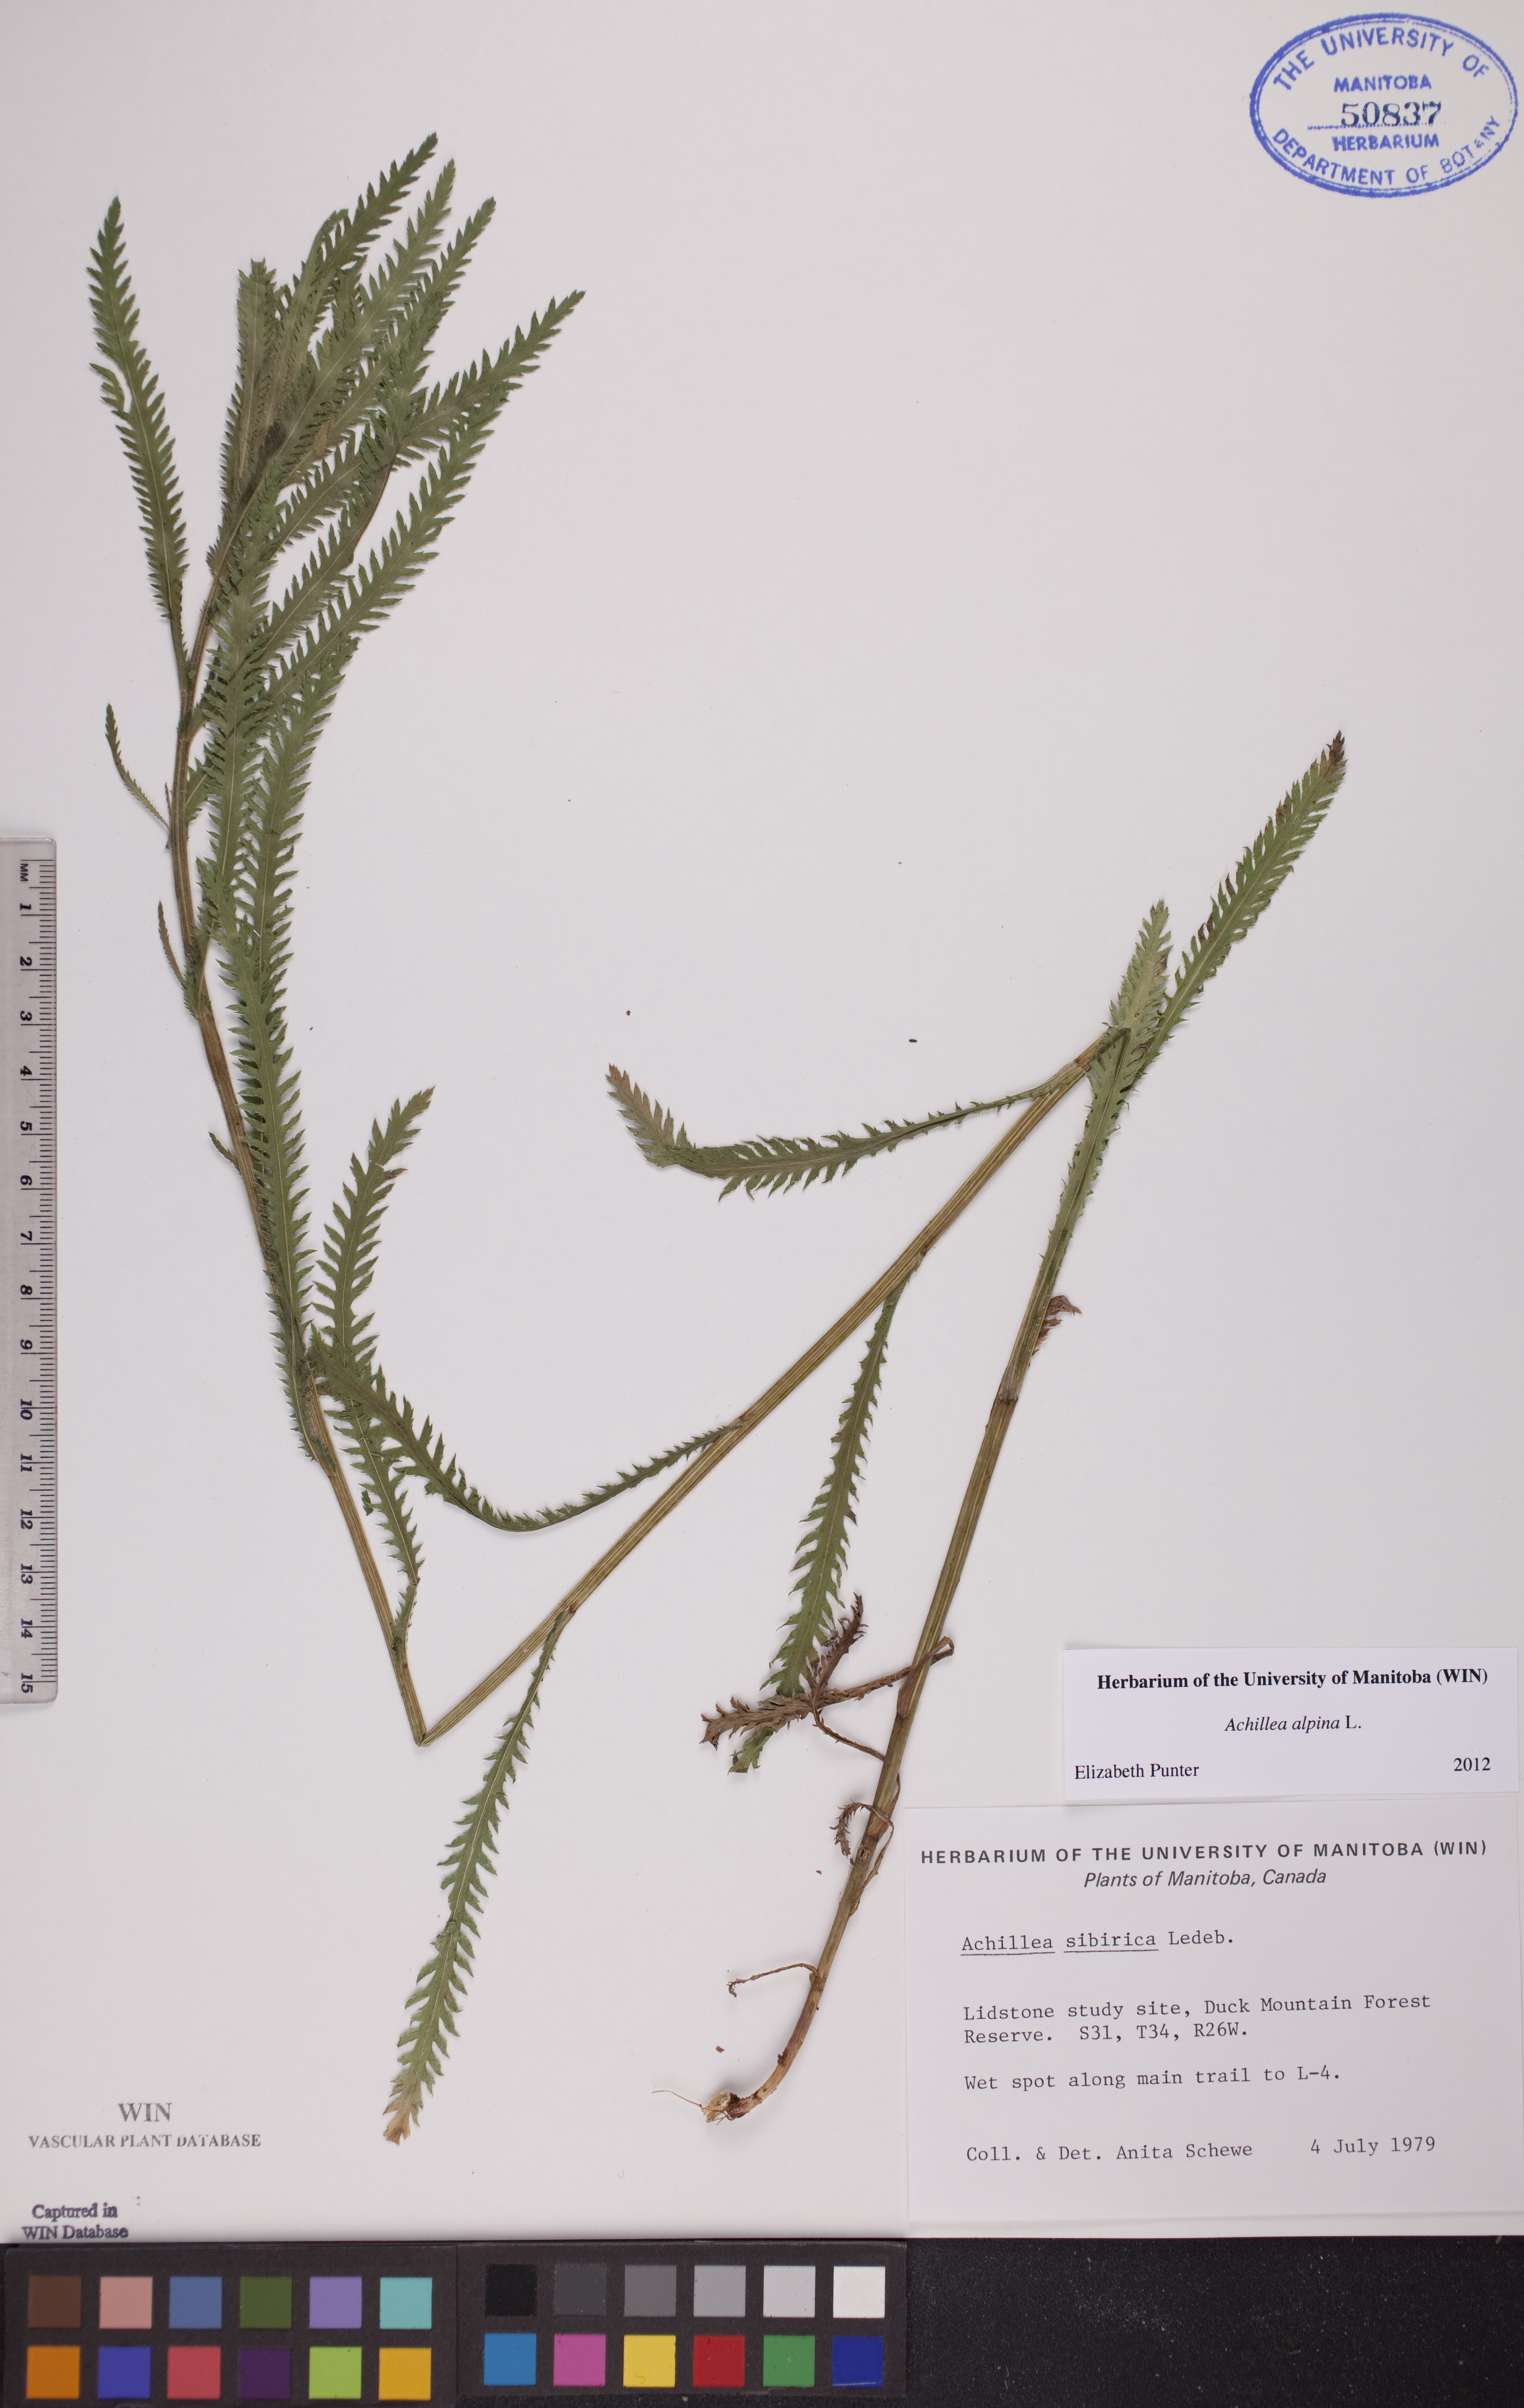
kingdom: Plantae
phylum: Tracheophyta
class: Magnoliopsida
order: Asterales
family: Asteraceae
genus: Achillea
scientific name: Achillea alpina
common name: Siberian yarrow
